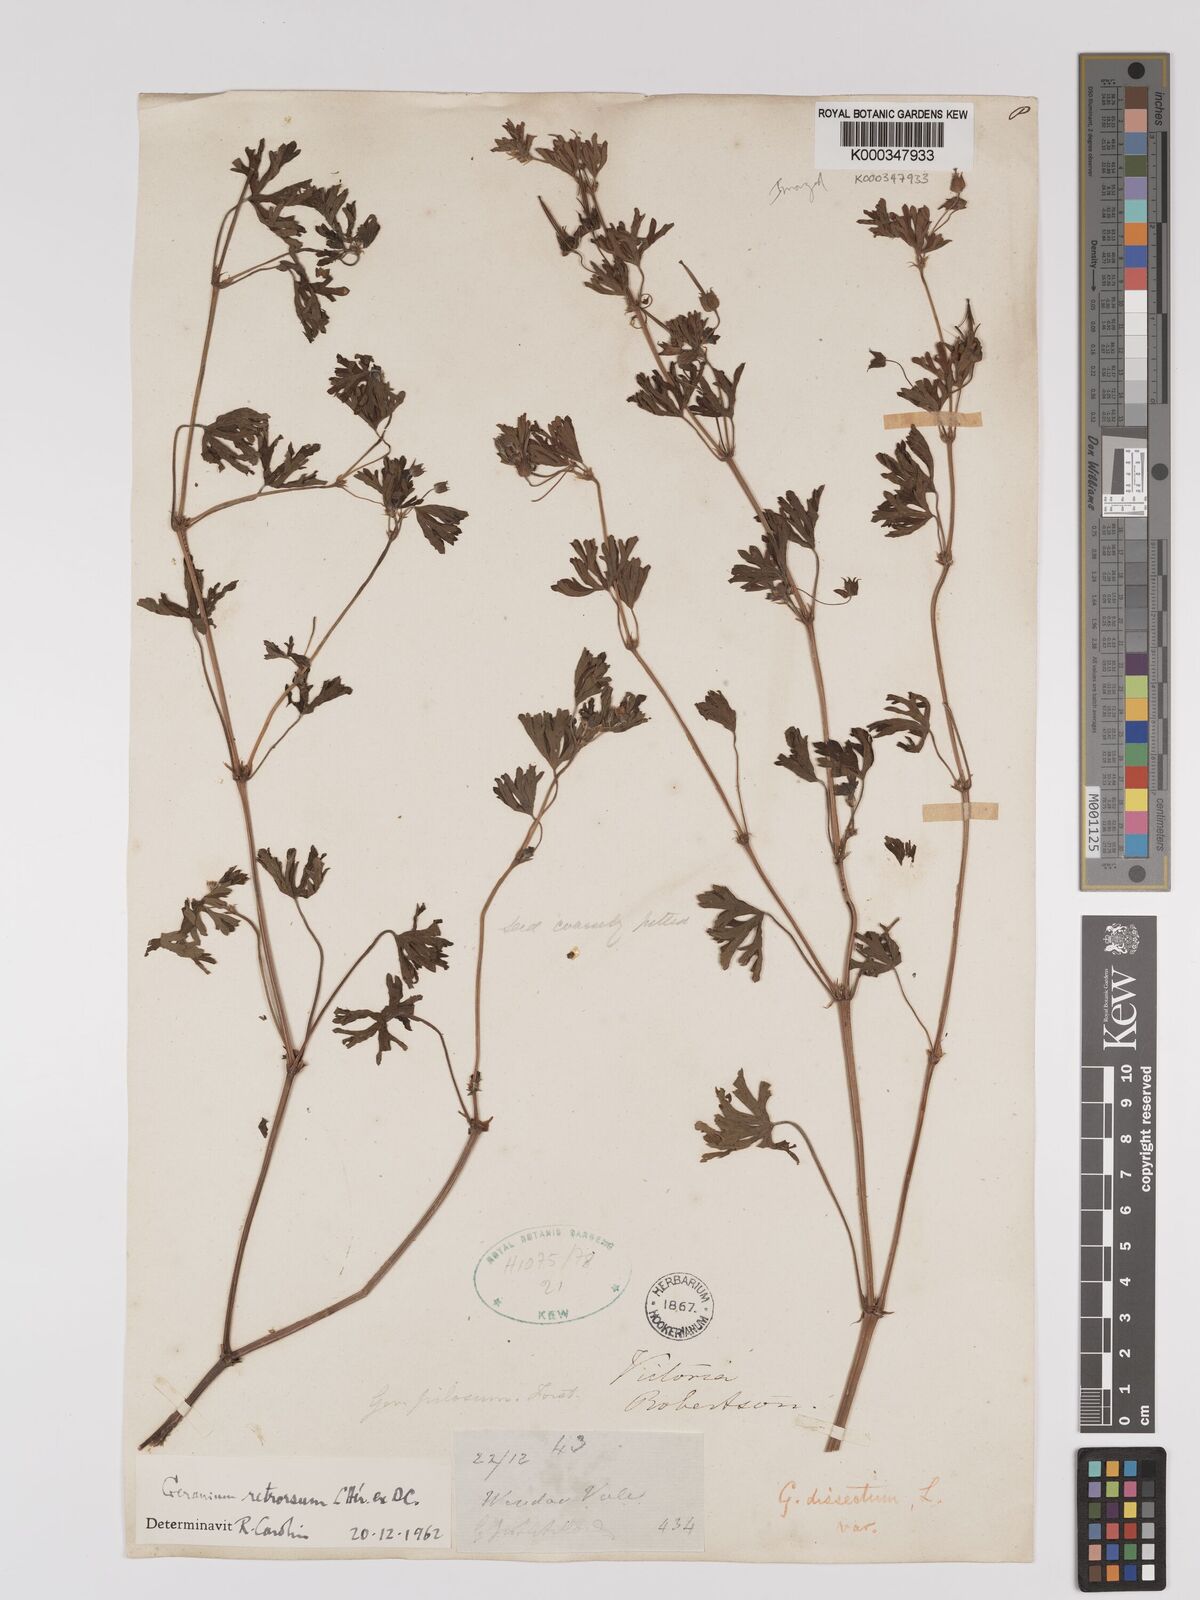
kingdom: Plantae
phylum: Tracheophyta
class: Magnoliopsida
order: Geraniales
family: Geraniaceae
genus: Geranium
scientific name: Geranium retrorsum
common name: New zealand geranium
